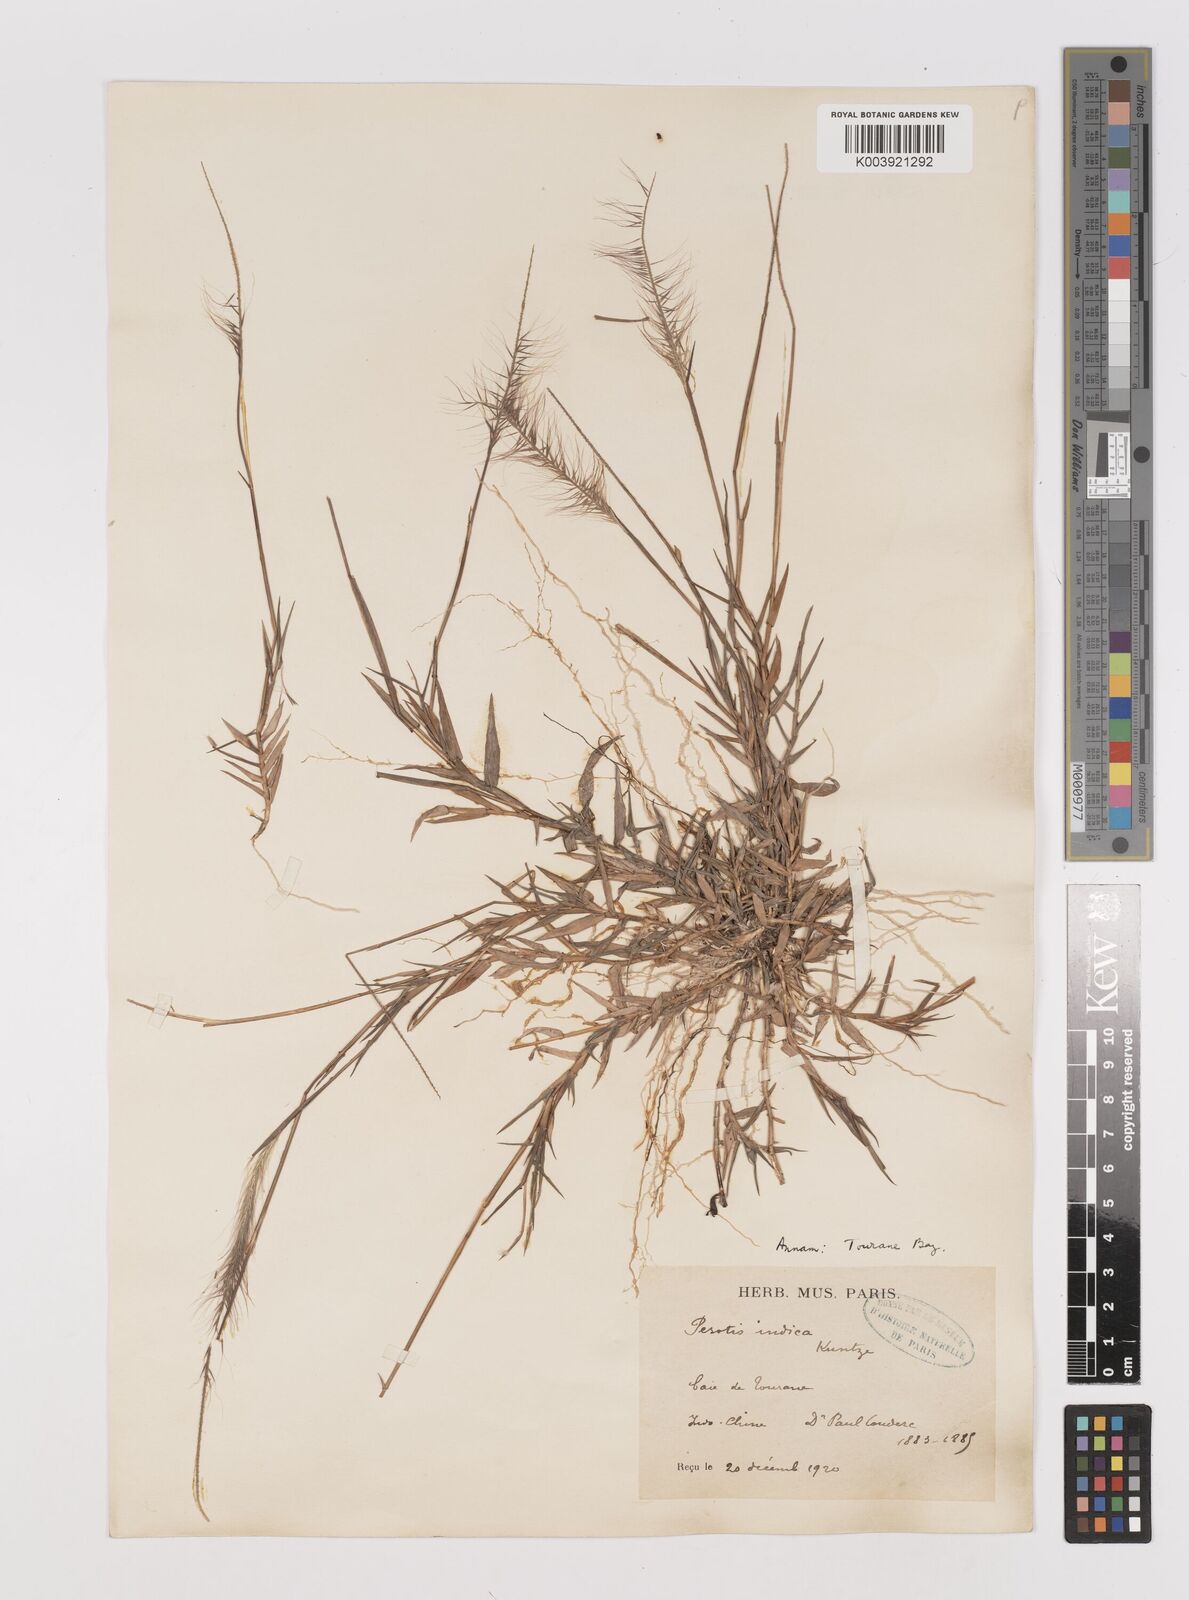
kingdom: Plantae
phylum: Tracheophyta
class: Liliopsida
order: Poales
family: Poaceae
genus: Perotis
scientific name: Perotis rara
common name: Comet grass
